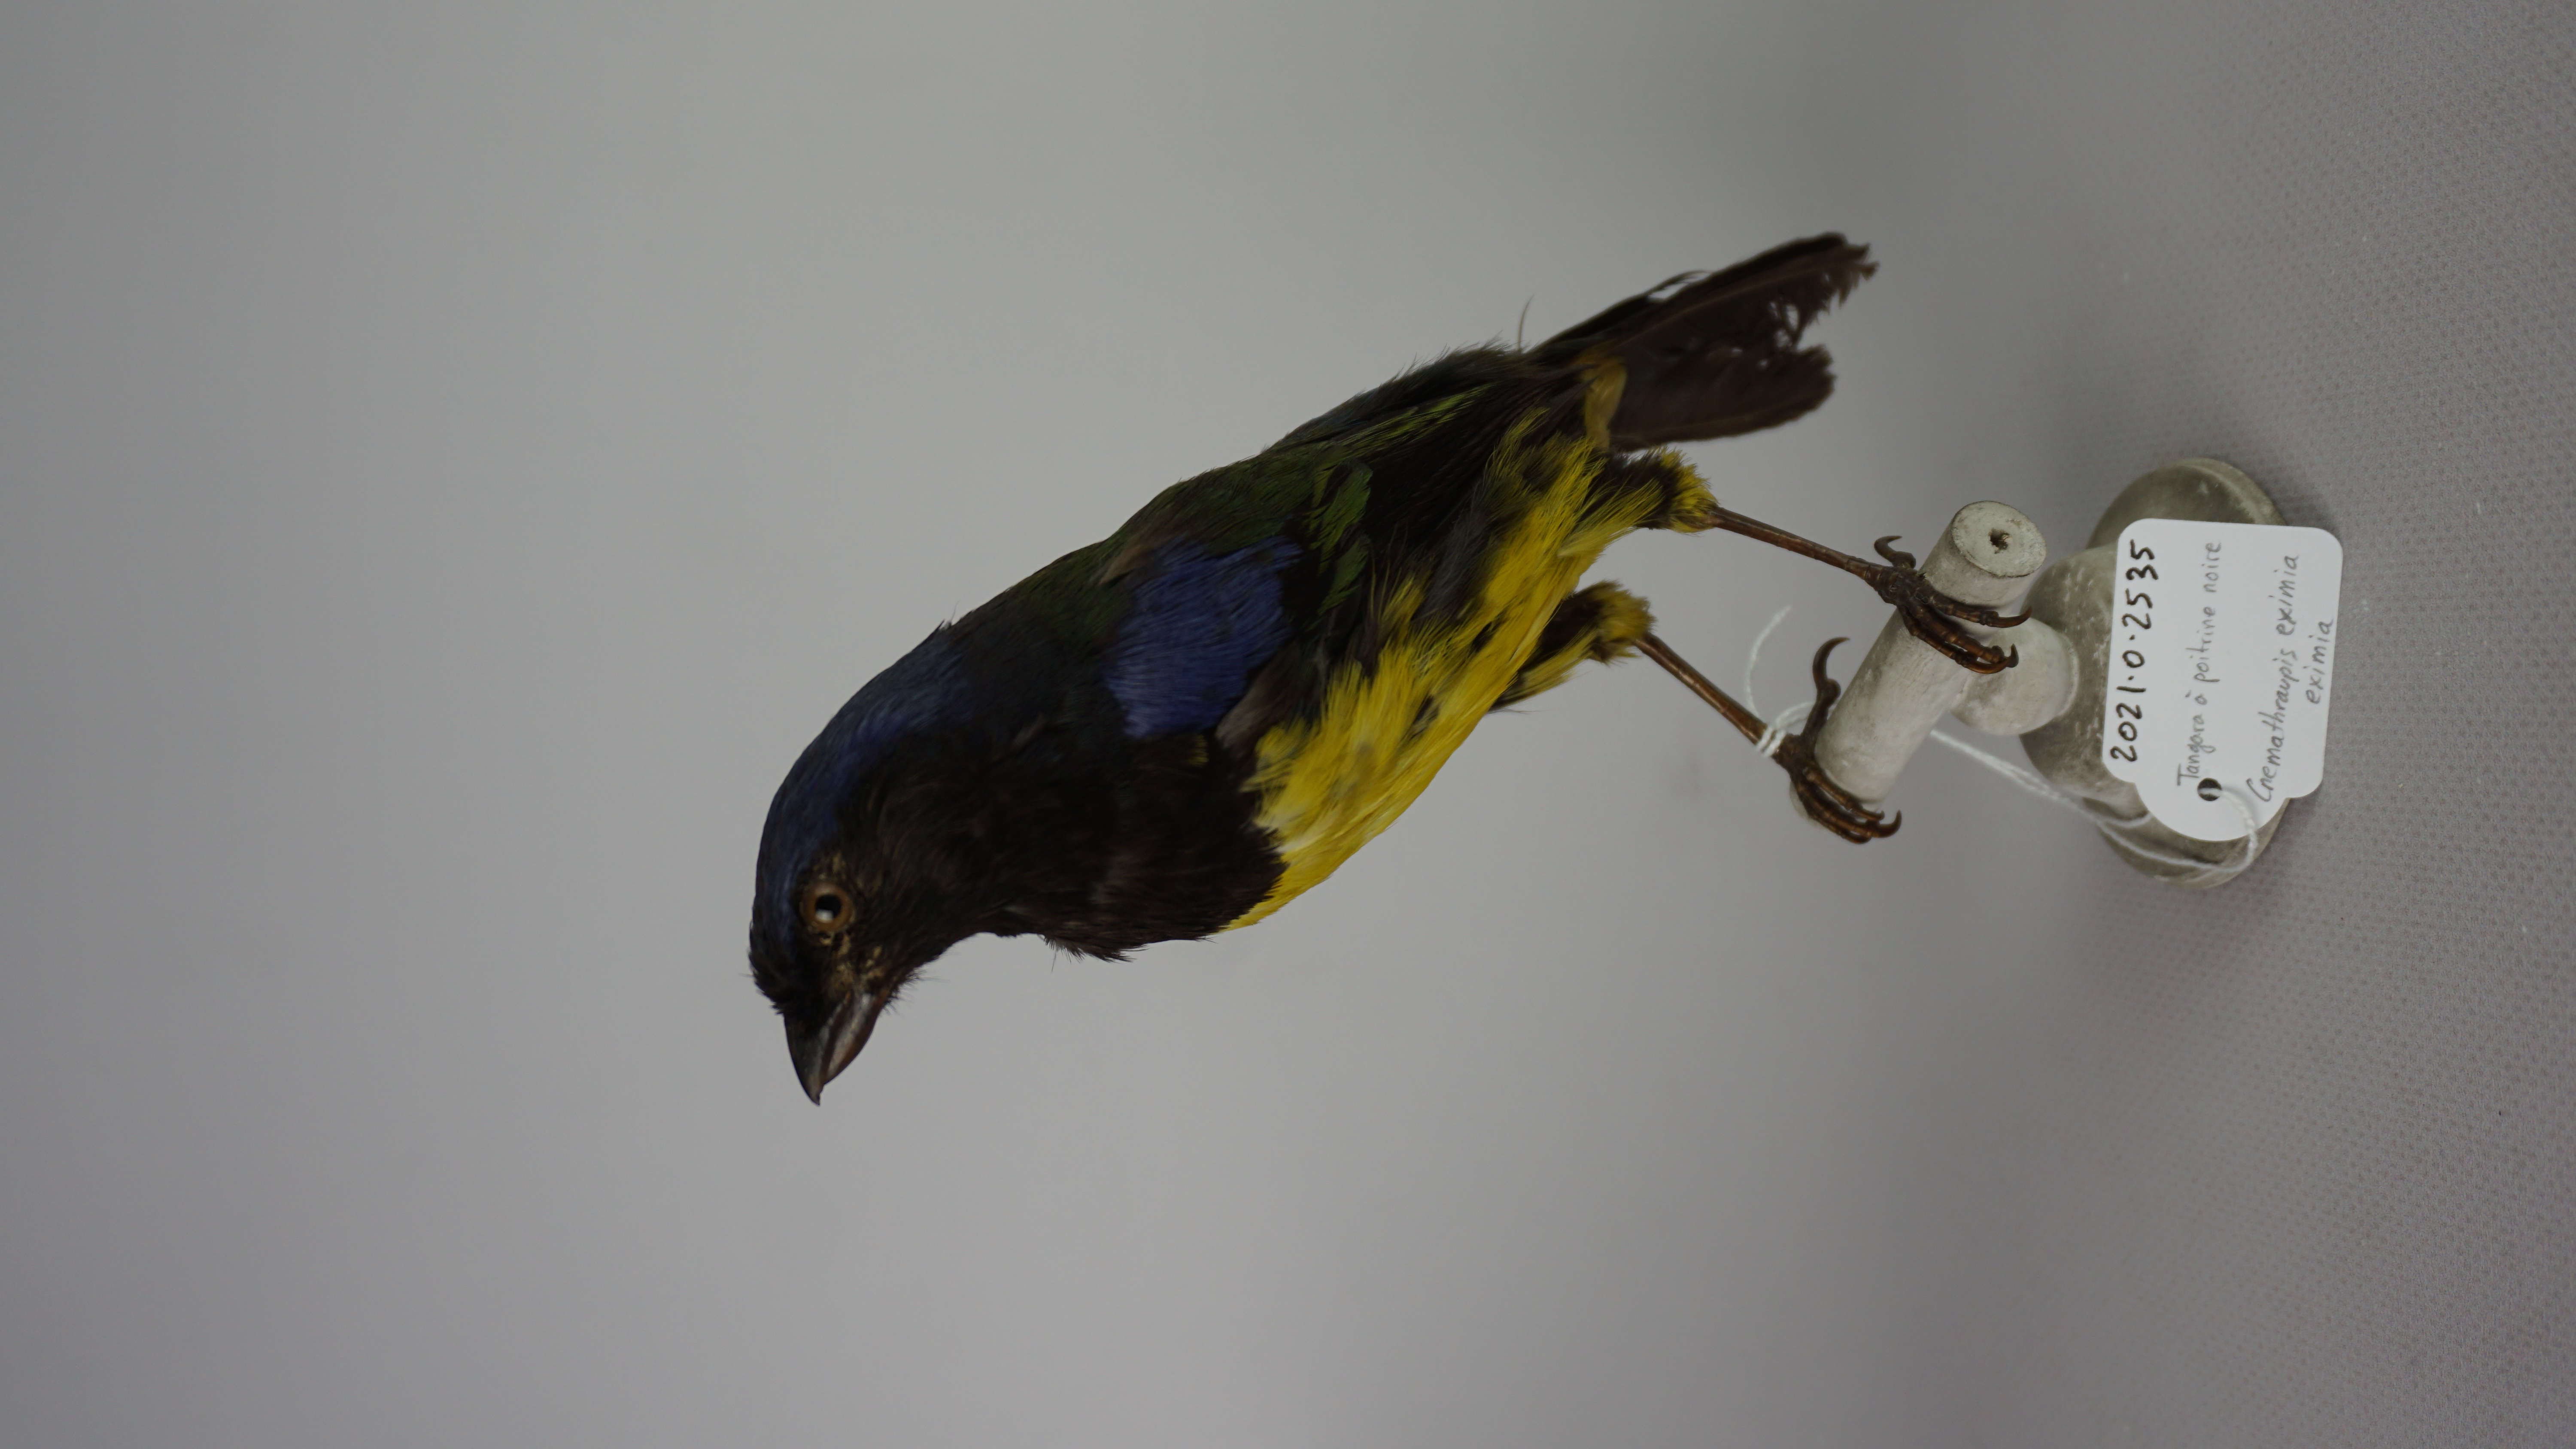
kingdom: Animalia
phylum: Chordata
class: Aves
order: Passeriformes
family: Thraupidae
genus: Cnemathraupis
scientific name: Cnemathraupis eximia
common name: Black-chested mountain-tanager
